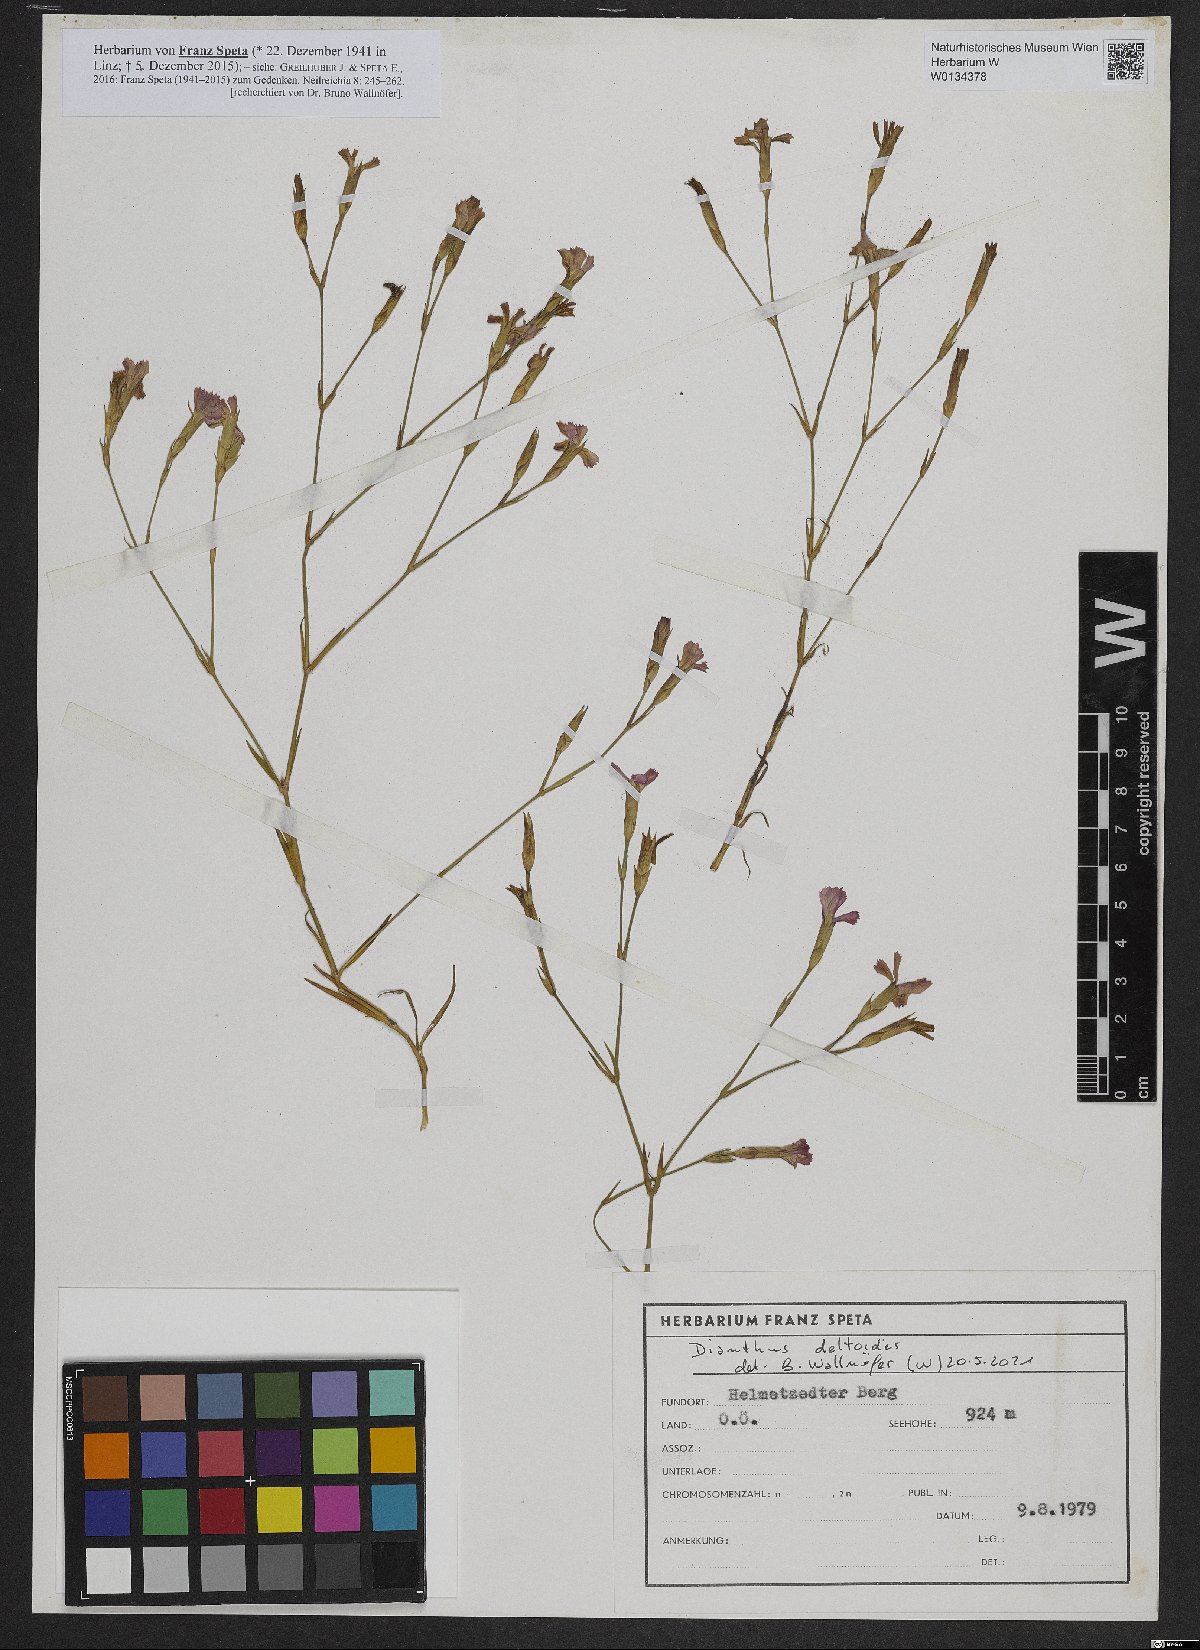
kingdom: Plantae
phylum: Tracheophyta
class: Magnoliopsida
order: Caryophyllales
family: Caryophyllaceae
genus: Dianthus
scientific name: Dianthus deltoides
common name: Maiden pink
